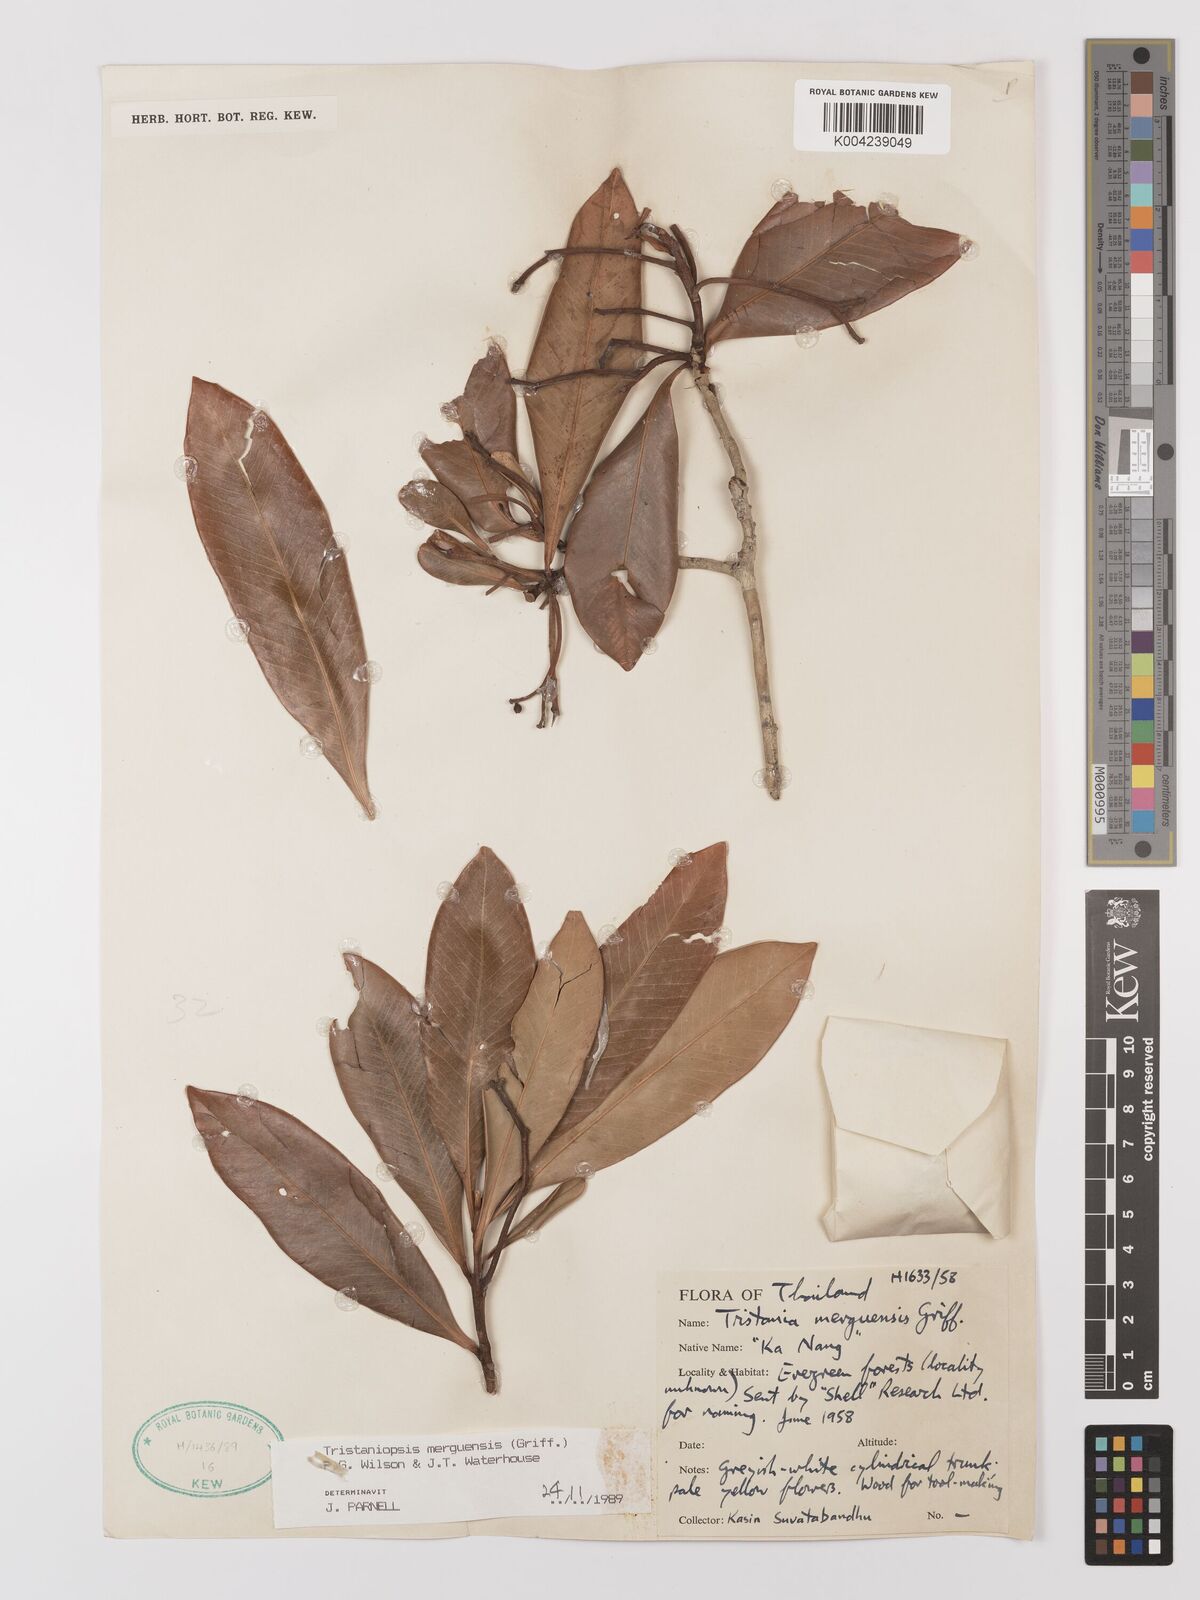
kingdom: Plantae
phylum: Tracheophyta
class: Magnoliopsida
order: Myrtales
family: Myrtaceae
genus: Tristaniopsis
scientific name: Tristaniopsis merguensis
